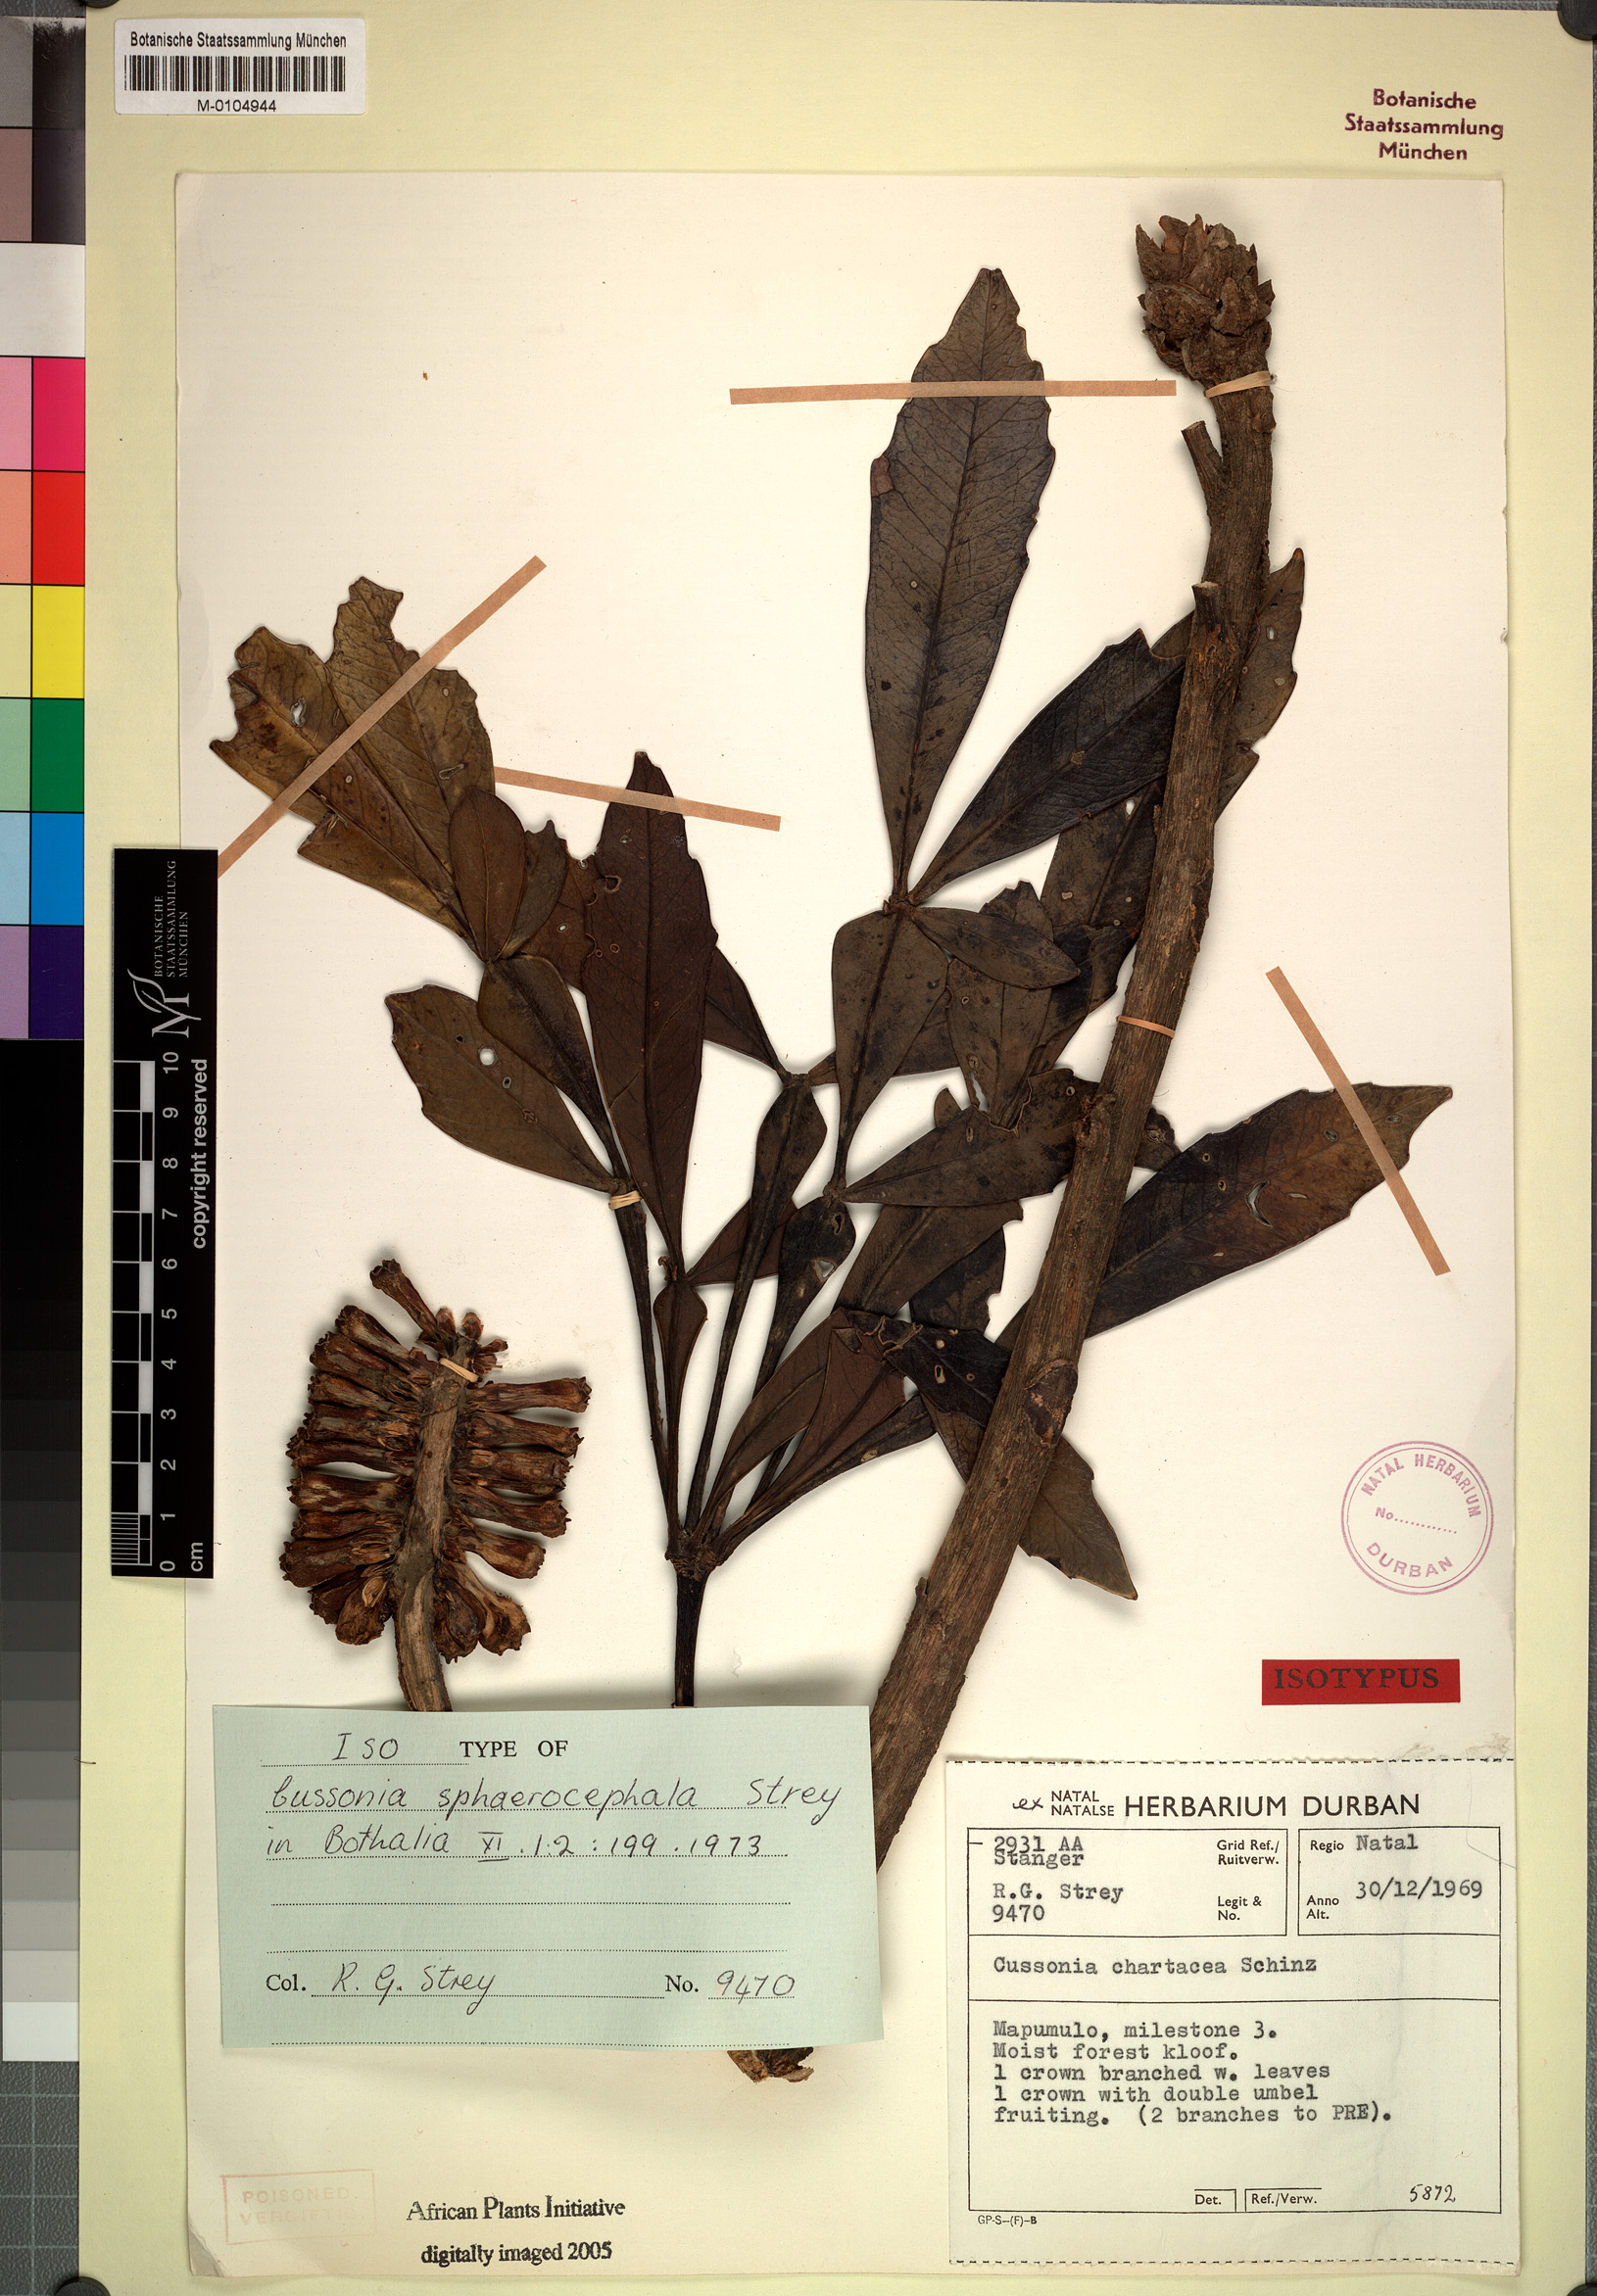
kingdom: Plantae
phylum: Tracheophyta
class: Magnoliopsida
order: Apiales
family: Araliaceae
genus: Cussonia
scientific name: Cussonia sphaerocephala
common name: Forest cabbage-tree
